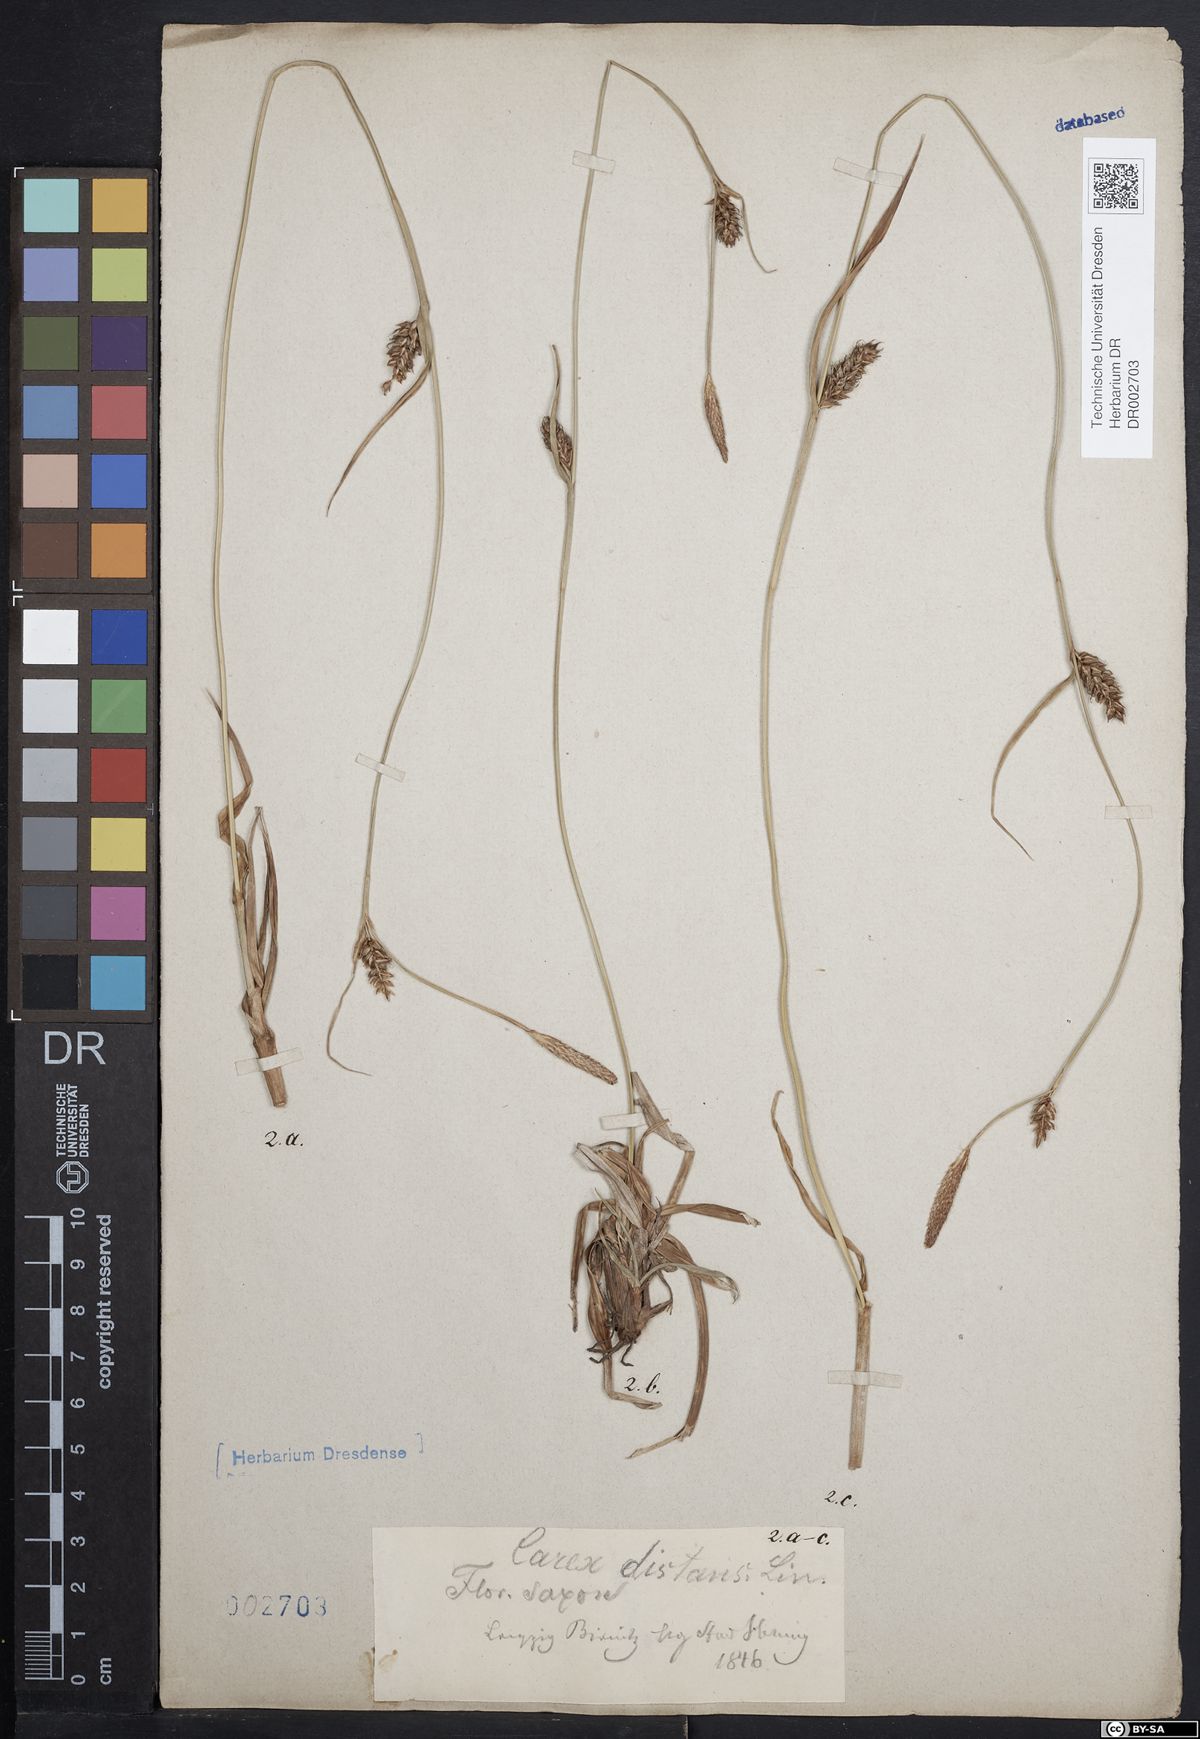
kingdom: Plantae
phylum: Tracheophyta
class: Liliopsida
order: Poales
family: Cyperaceae
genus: Carex
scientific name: Carex distans
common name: Distant sedge
